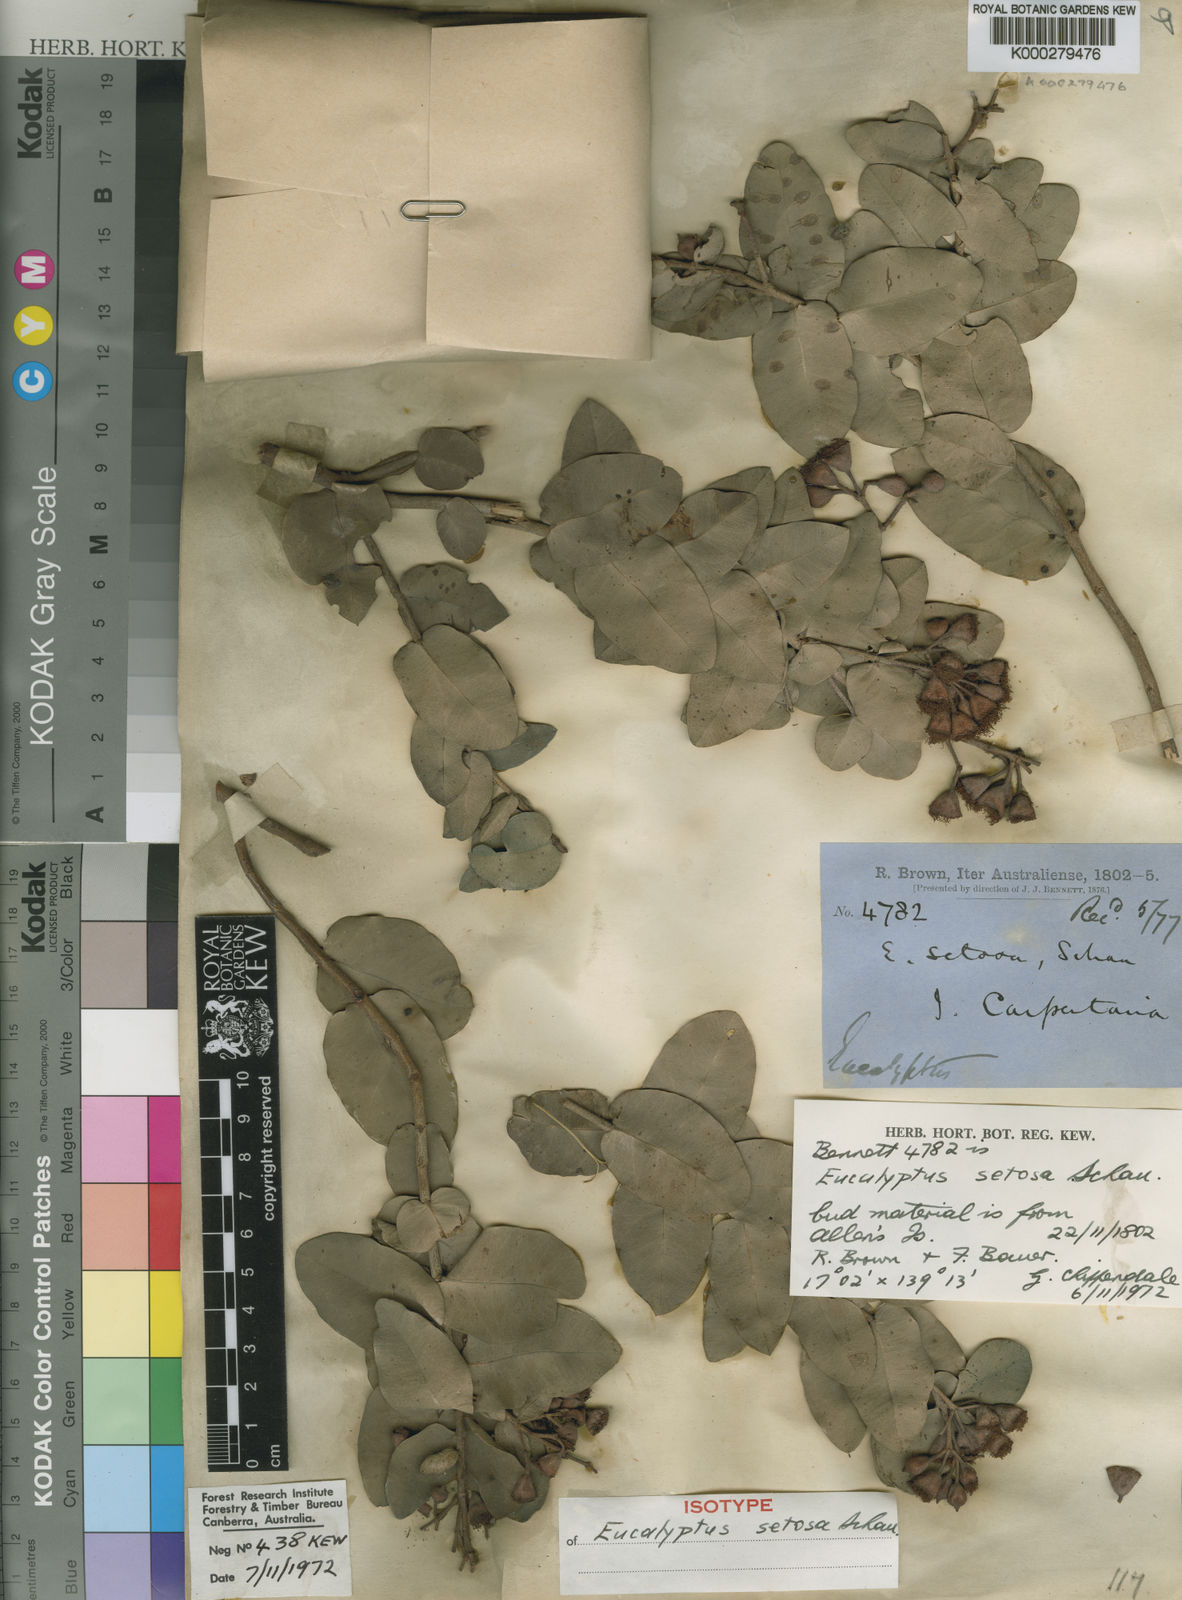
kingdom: Plantae
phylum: Tracheophyta
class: Magnoliopsida
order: Myrtales
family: Myrtaceae
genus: Corymbia
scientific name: Corymbia setosa
